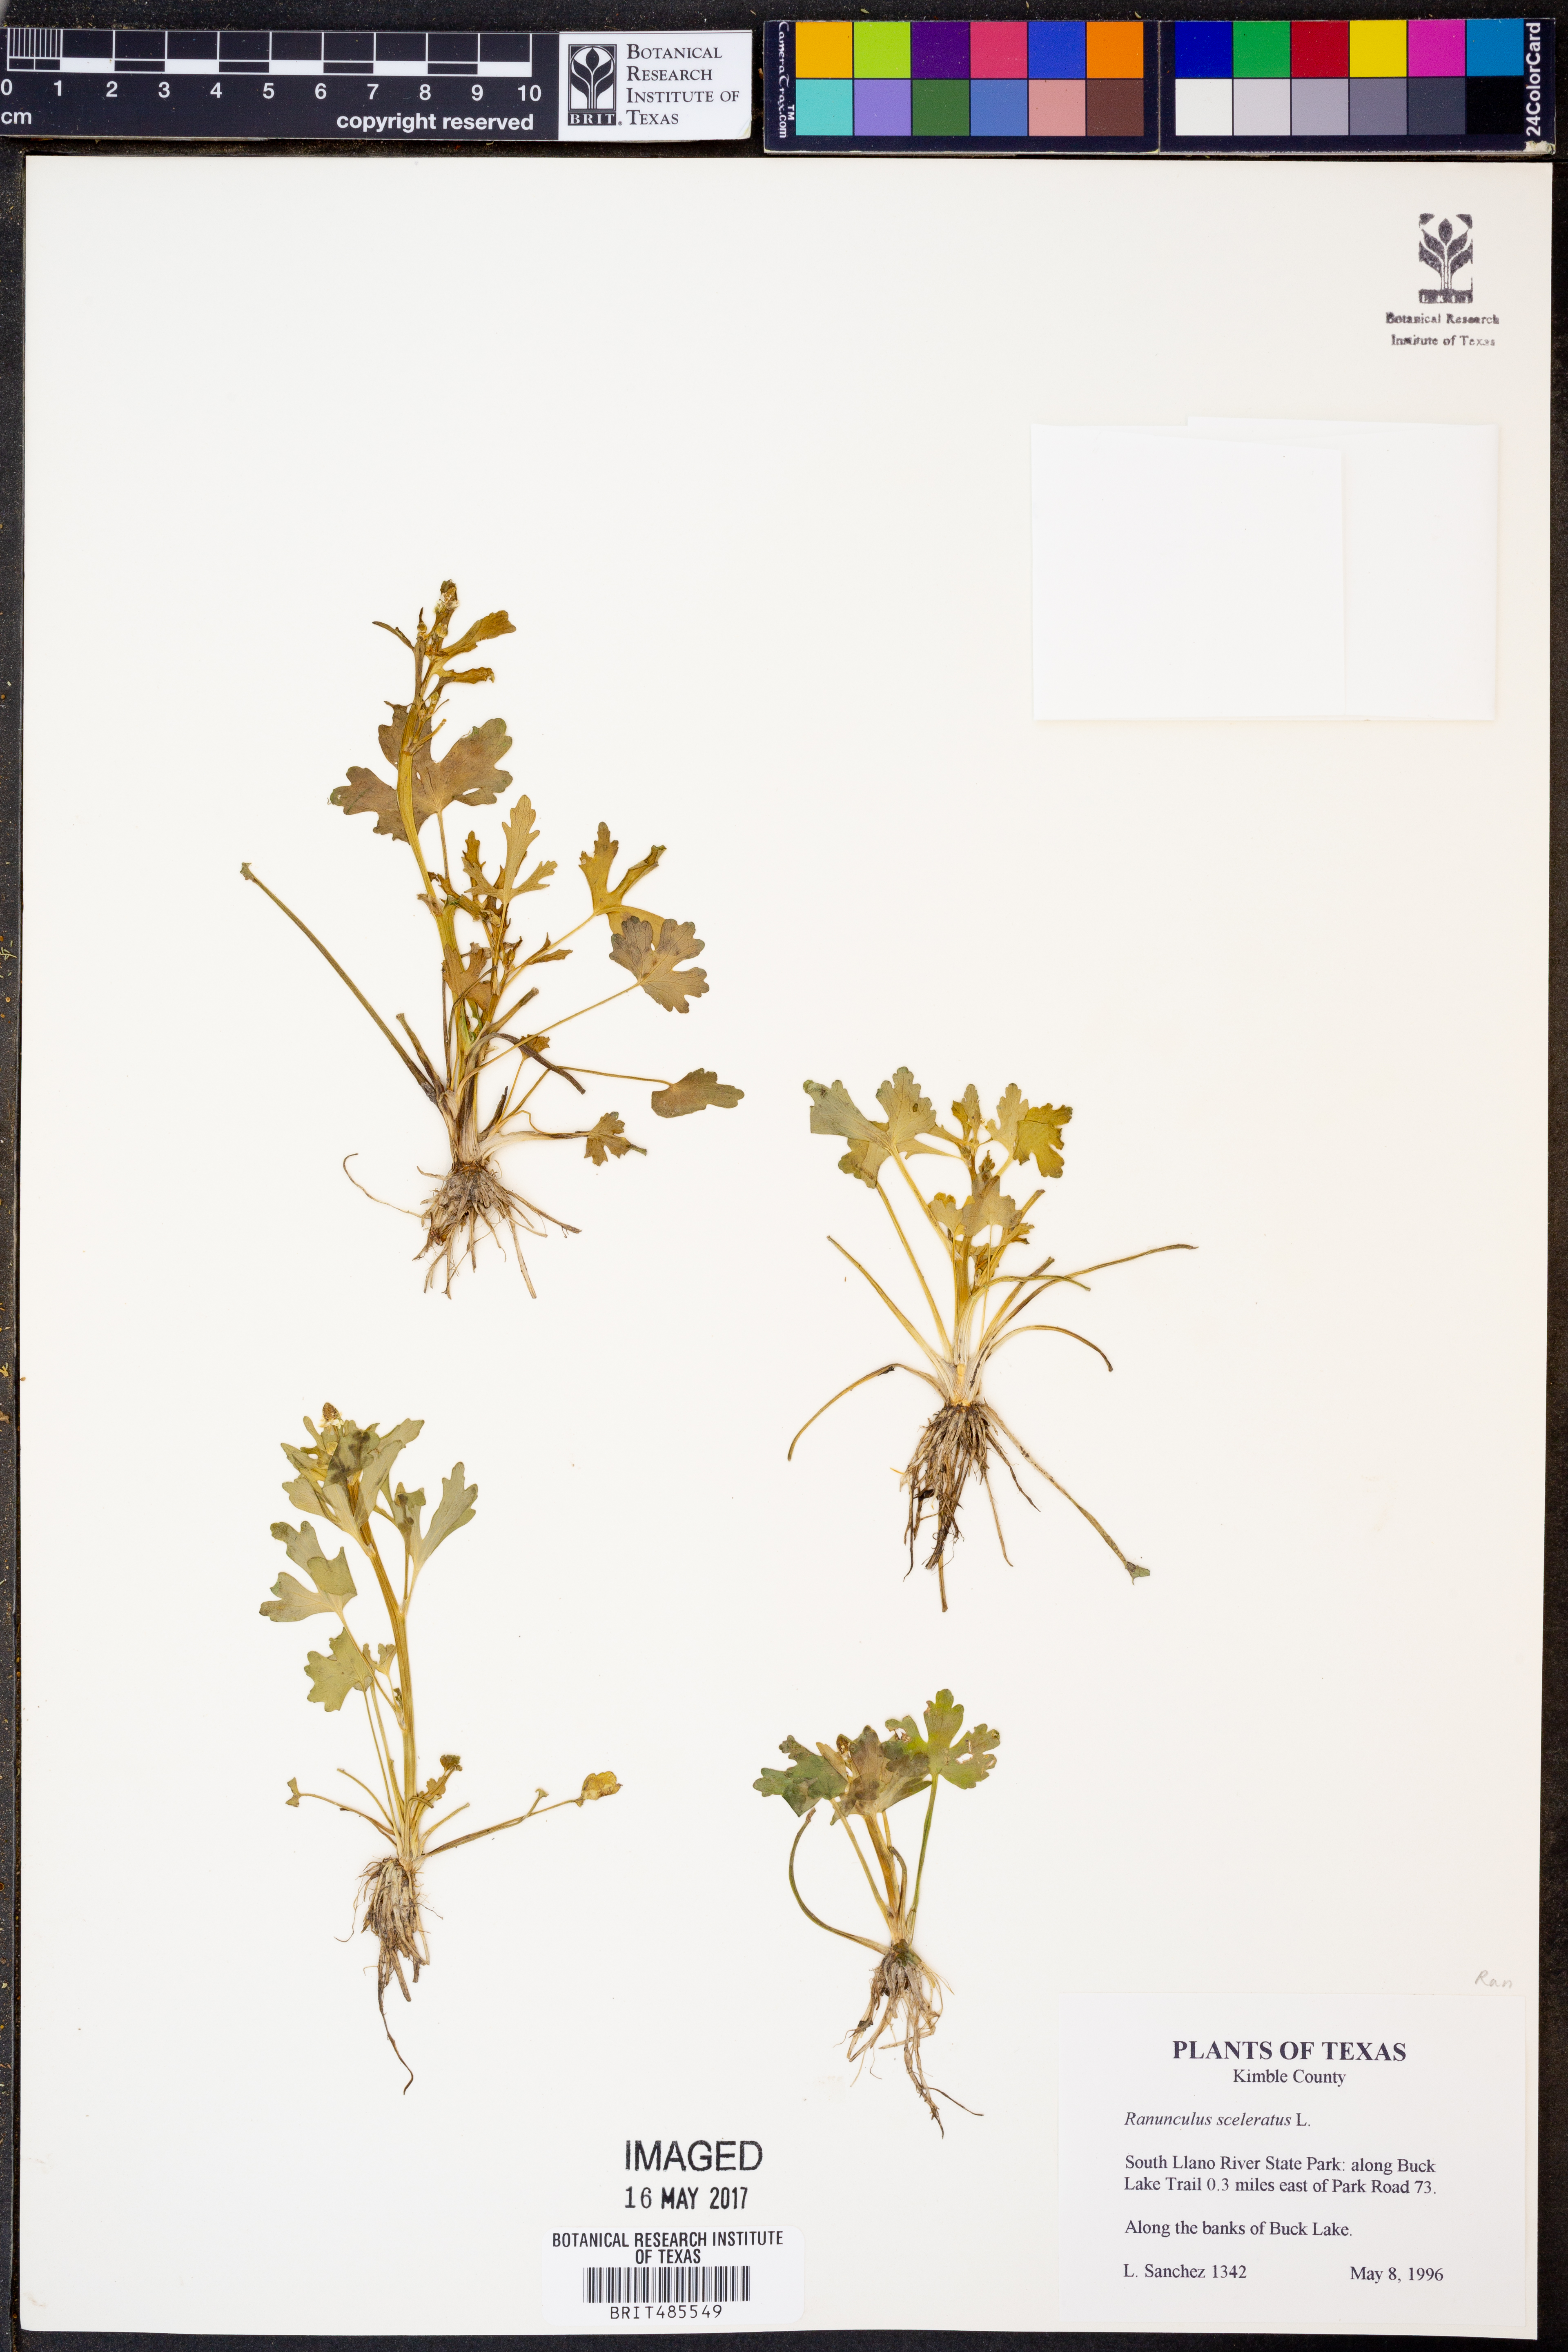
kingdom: Plantae
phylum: Tracheophyta
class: Magnoliopsida
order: Ranunculales
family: Ranunculaceae
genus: Ranunculus
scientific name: Ranunculus sceleratus
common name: Celery-leaved buttercup
